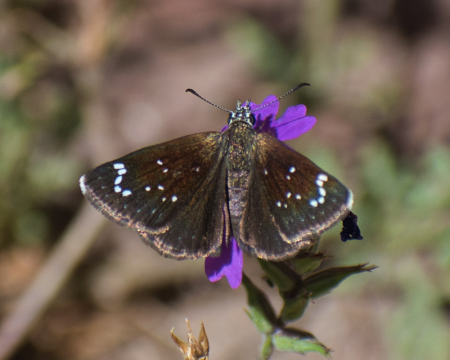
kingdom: Animalia
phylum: Arthropoda
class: Insecta
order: Lepidoptera
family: Hesperiidae
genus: Pholisora
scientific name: Pholisora catullus
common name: Common Sootywing
